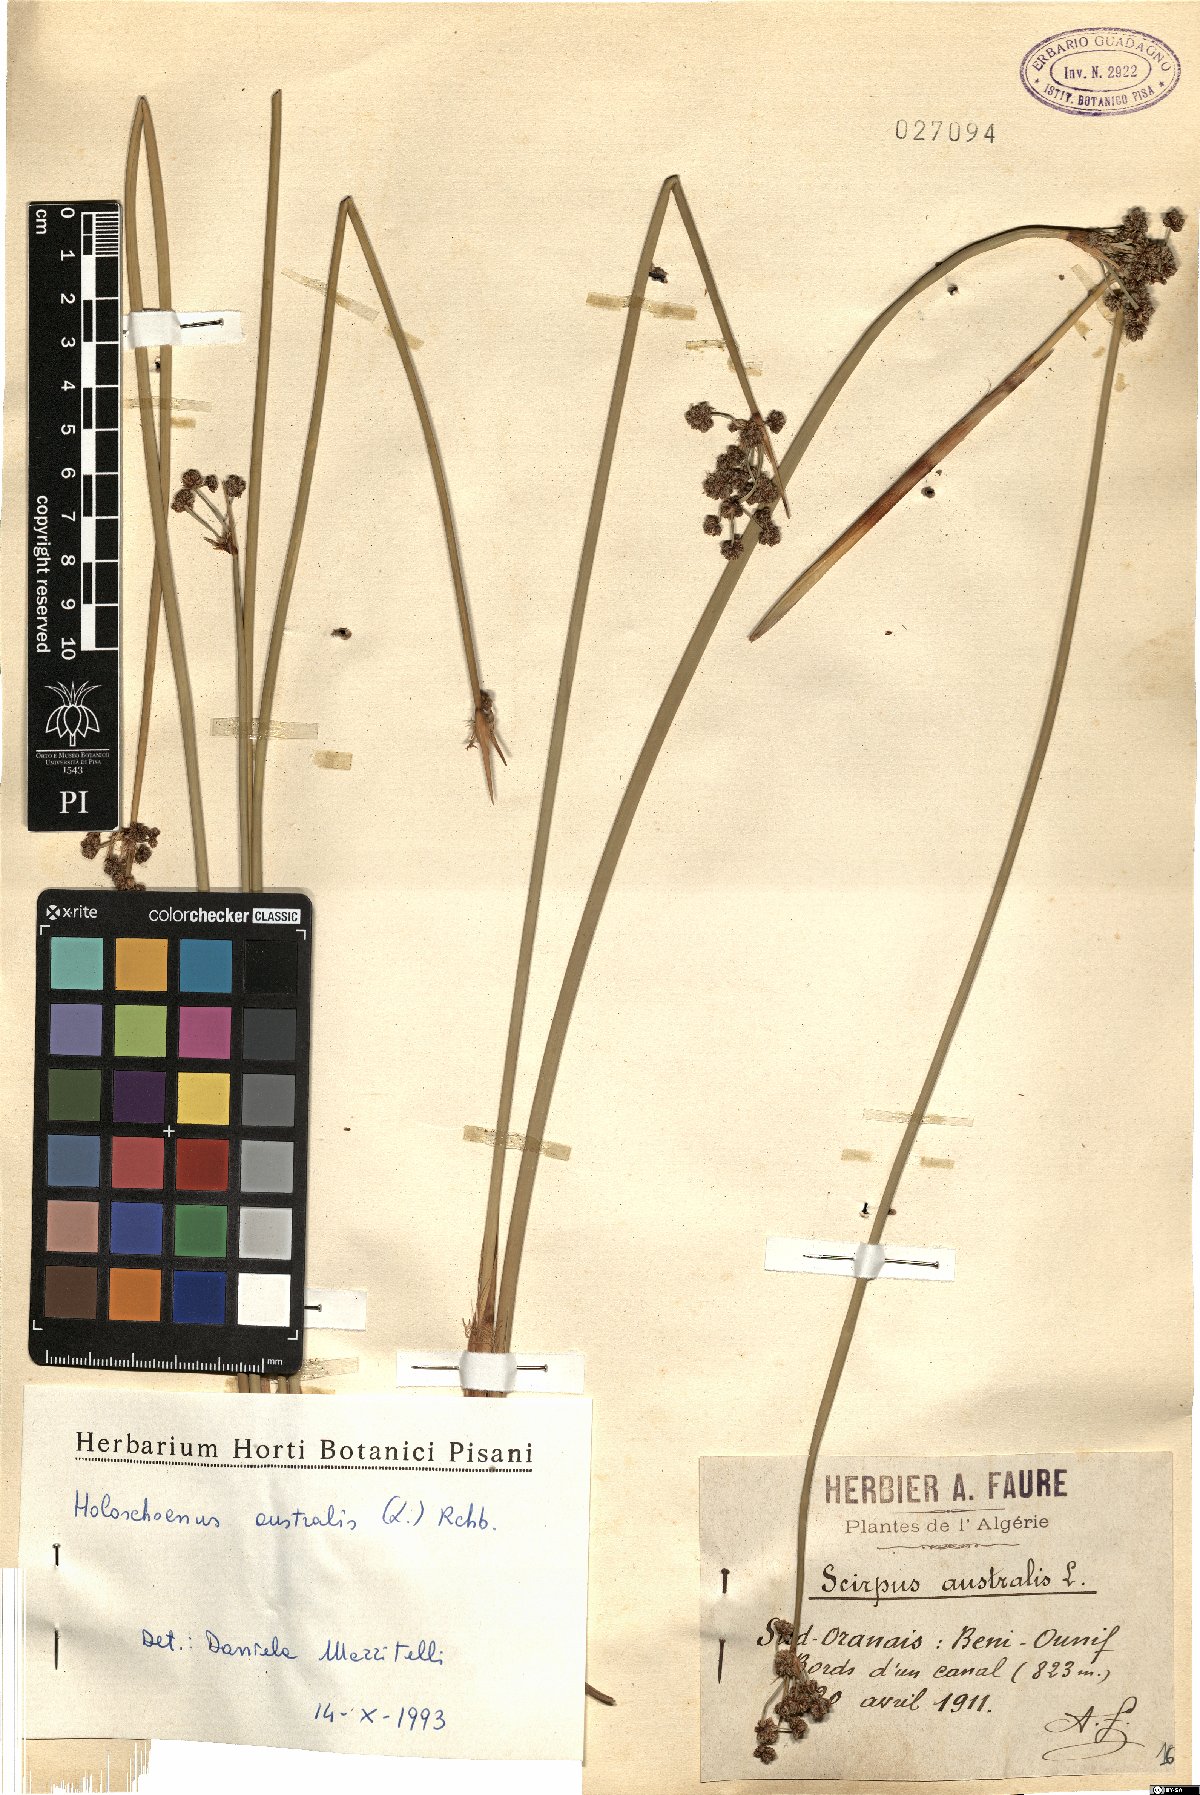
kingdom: Plantae
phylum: Tracheophyta
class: Liliopsida
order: Poales
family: Cyperaceae
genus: Scirpoides
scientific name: Scirpoides holoschoenus
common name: Round-headed club-rush
